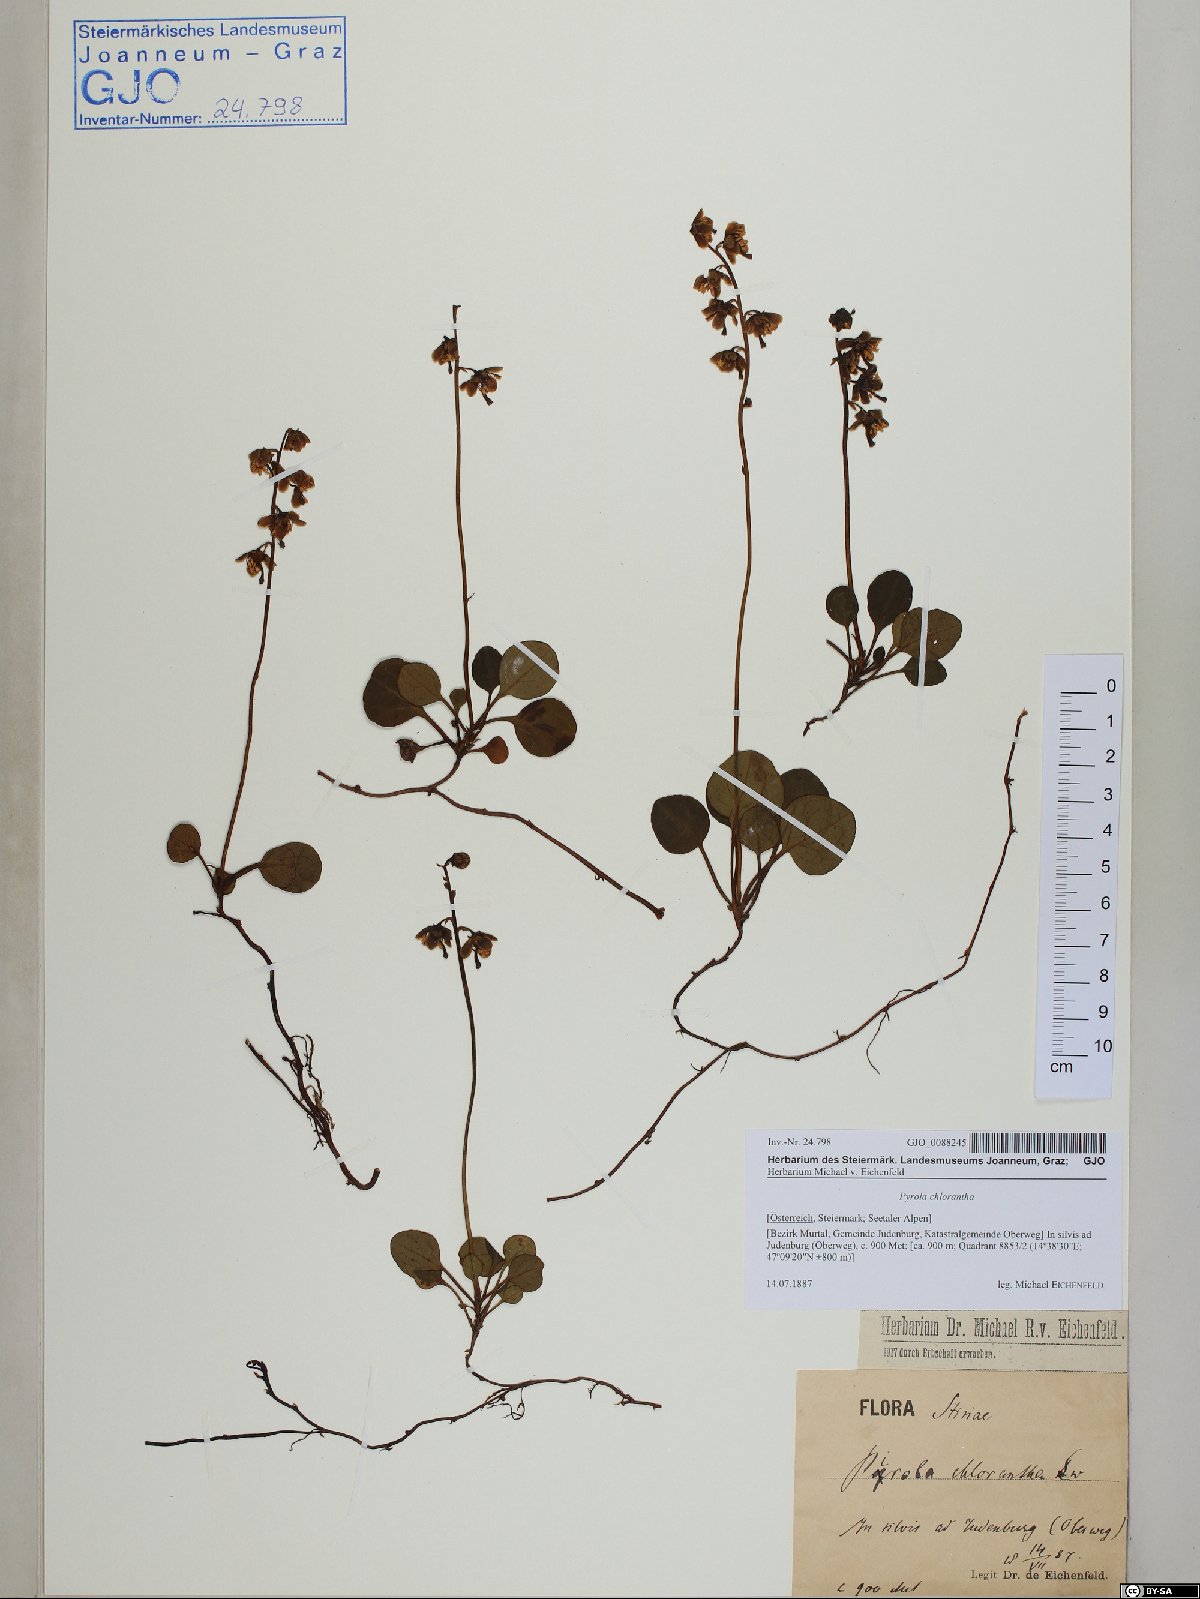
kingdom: Plantae
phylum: Tracheophyta
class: Magnoliopsida
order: Ericales
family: Ericaceae
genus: Pyrola
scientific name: Pyrola chlorantha
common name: Green wintergreen
